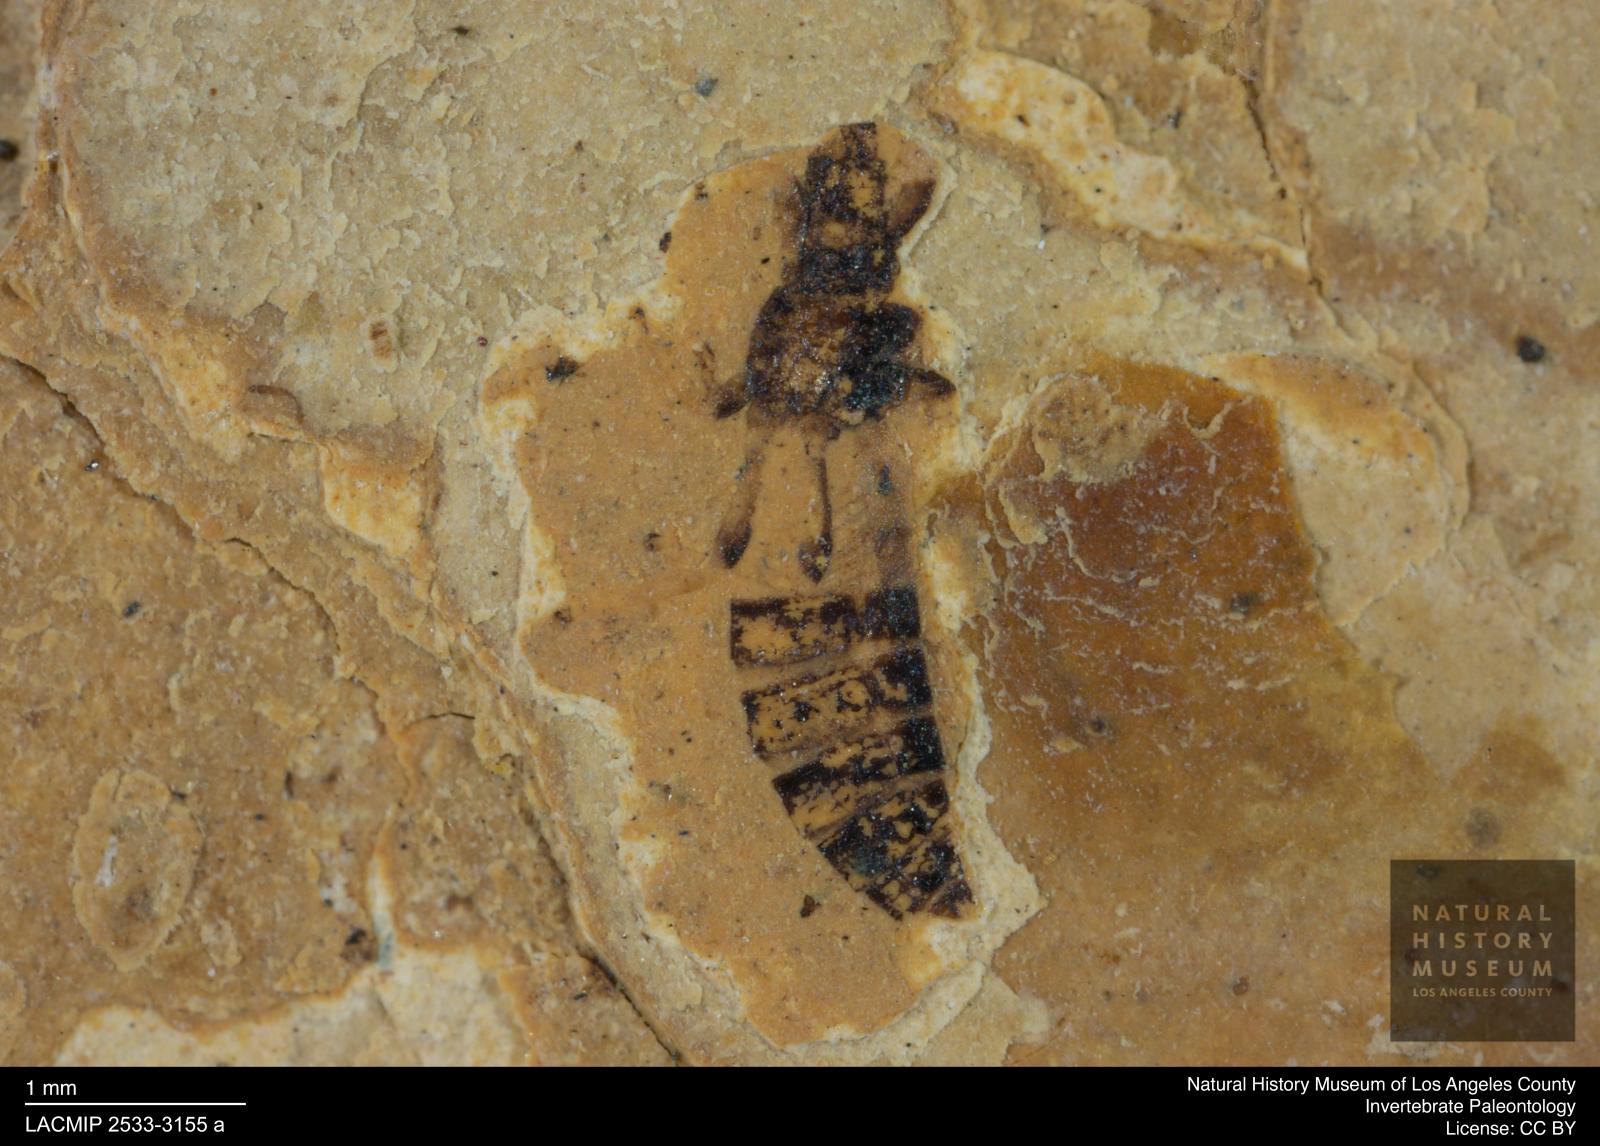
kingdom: Animalia
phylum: Arthropoda
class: Insecta
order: Thysanoptera
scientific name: Thysanoptera
